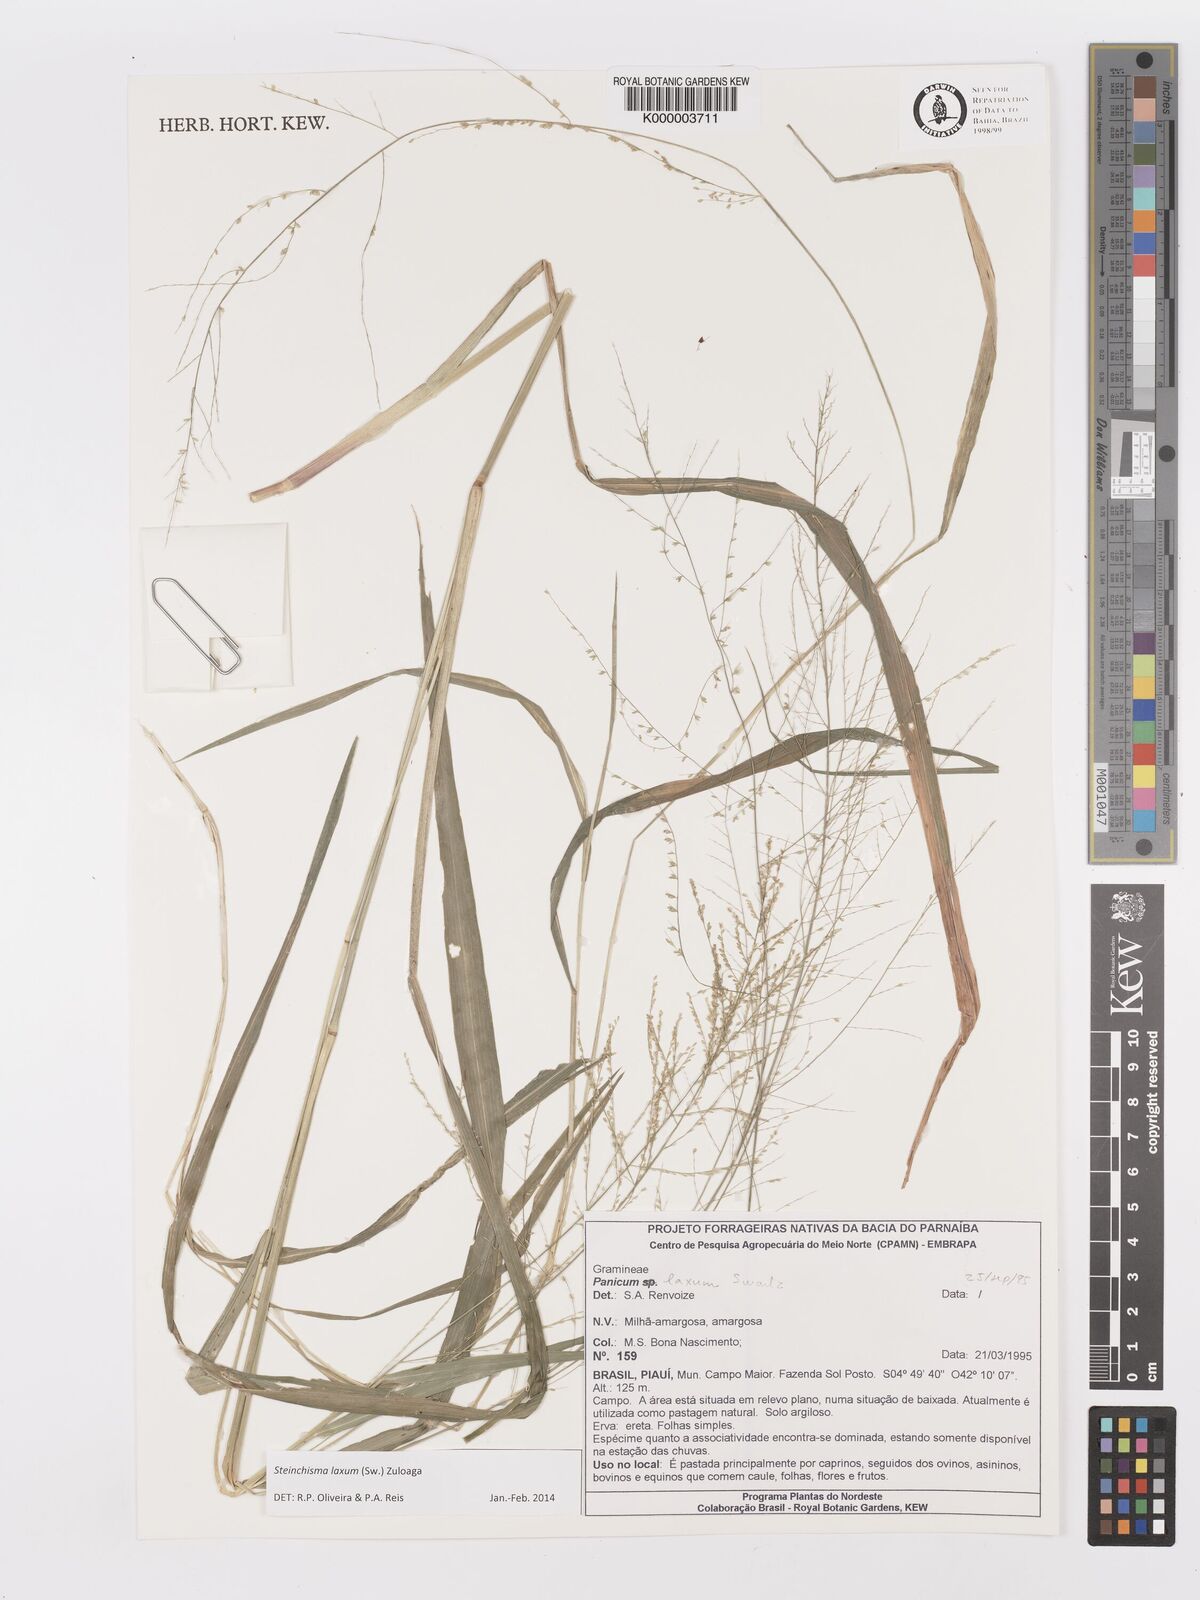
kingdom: Plantae
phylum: Tracheophyta
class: Liliopsida
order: Poales
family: Poaceae
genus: Panicum
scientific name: Panicum
